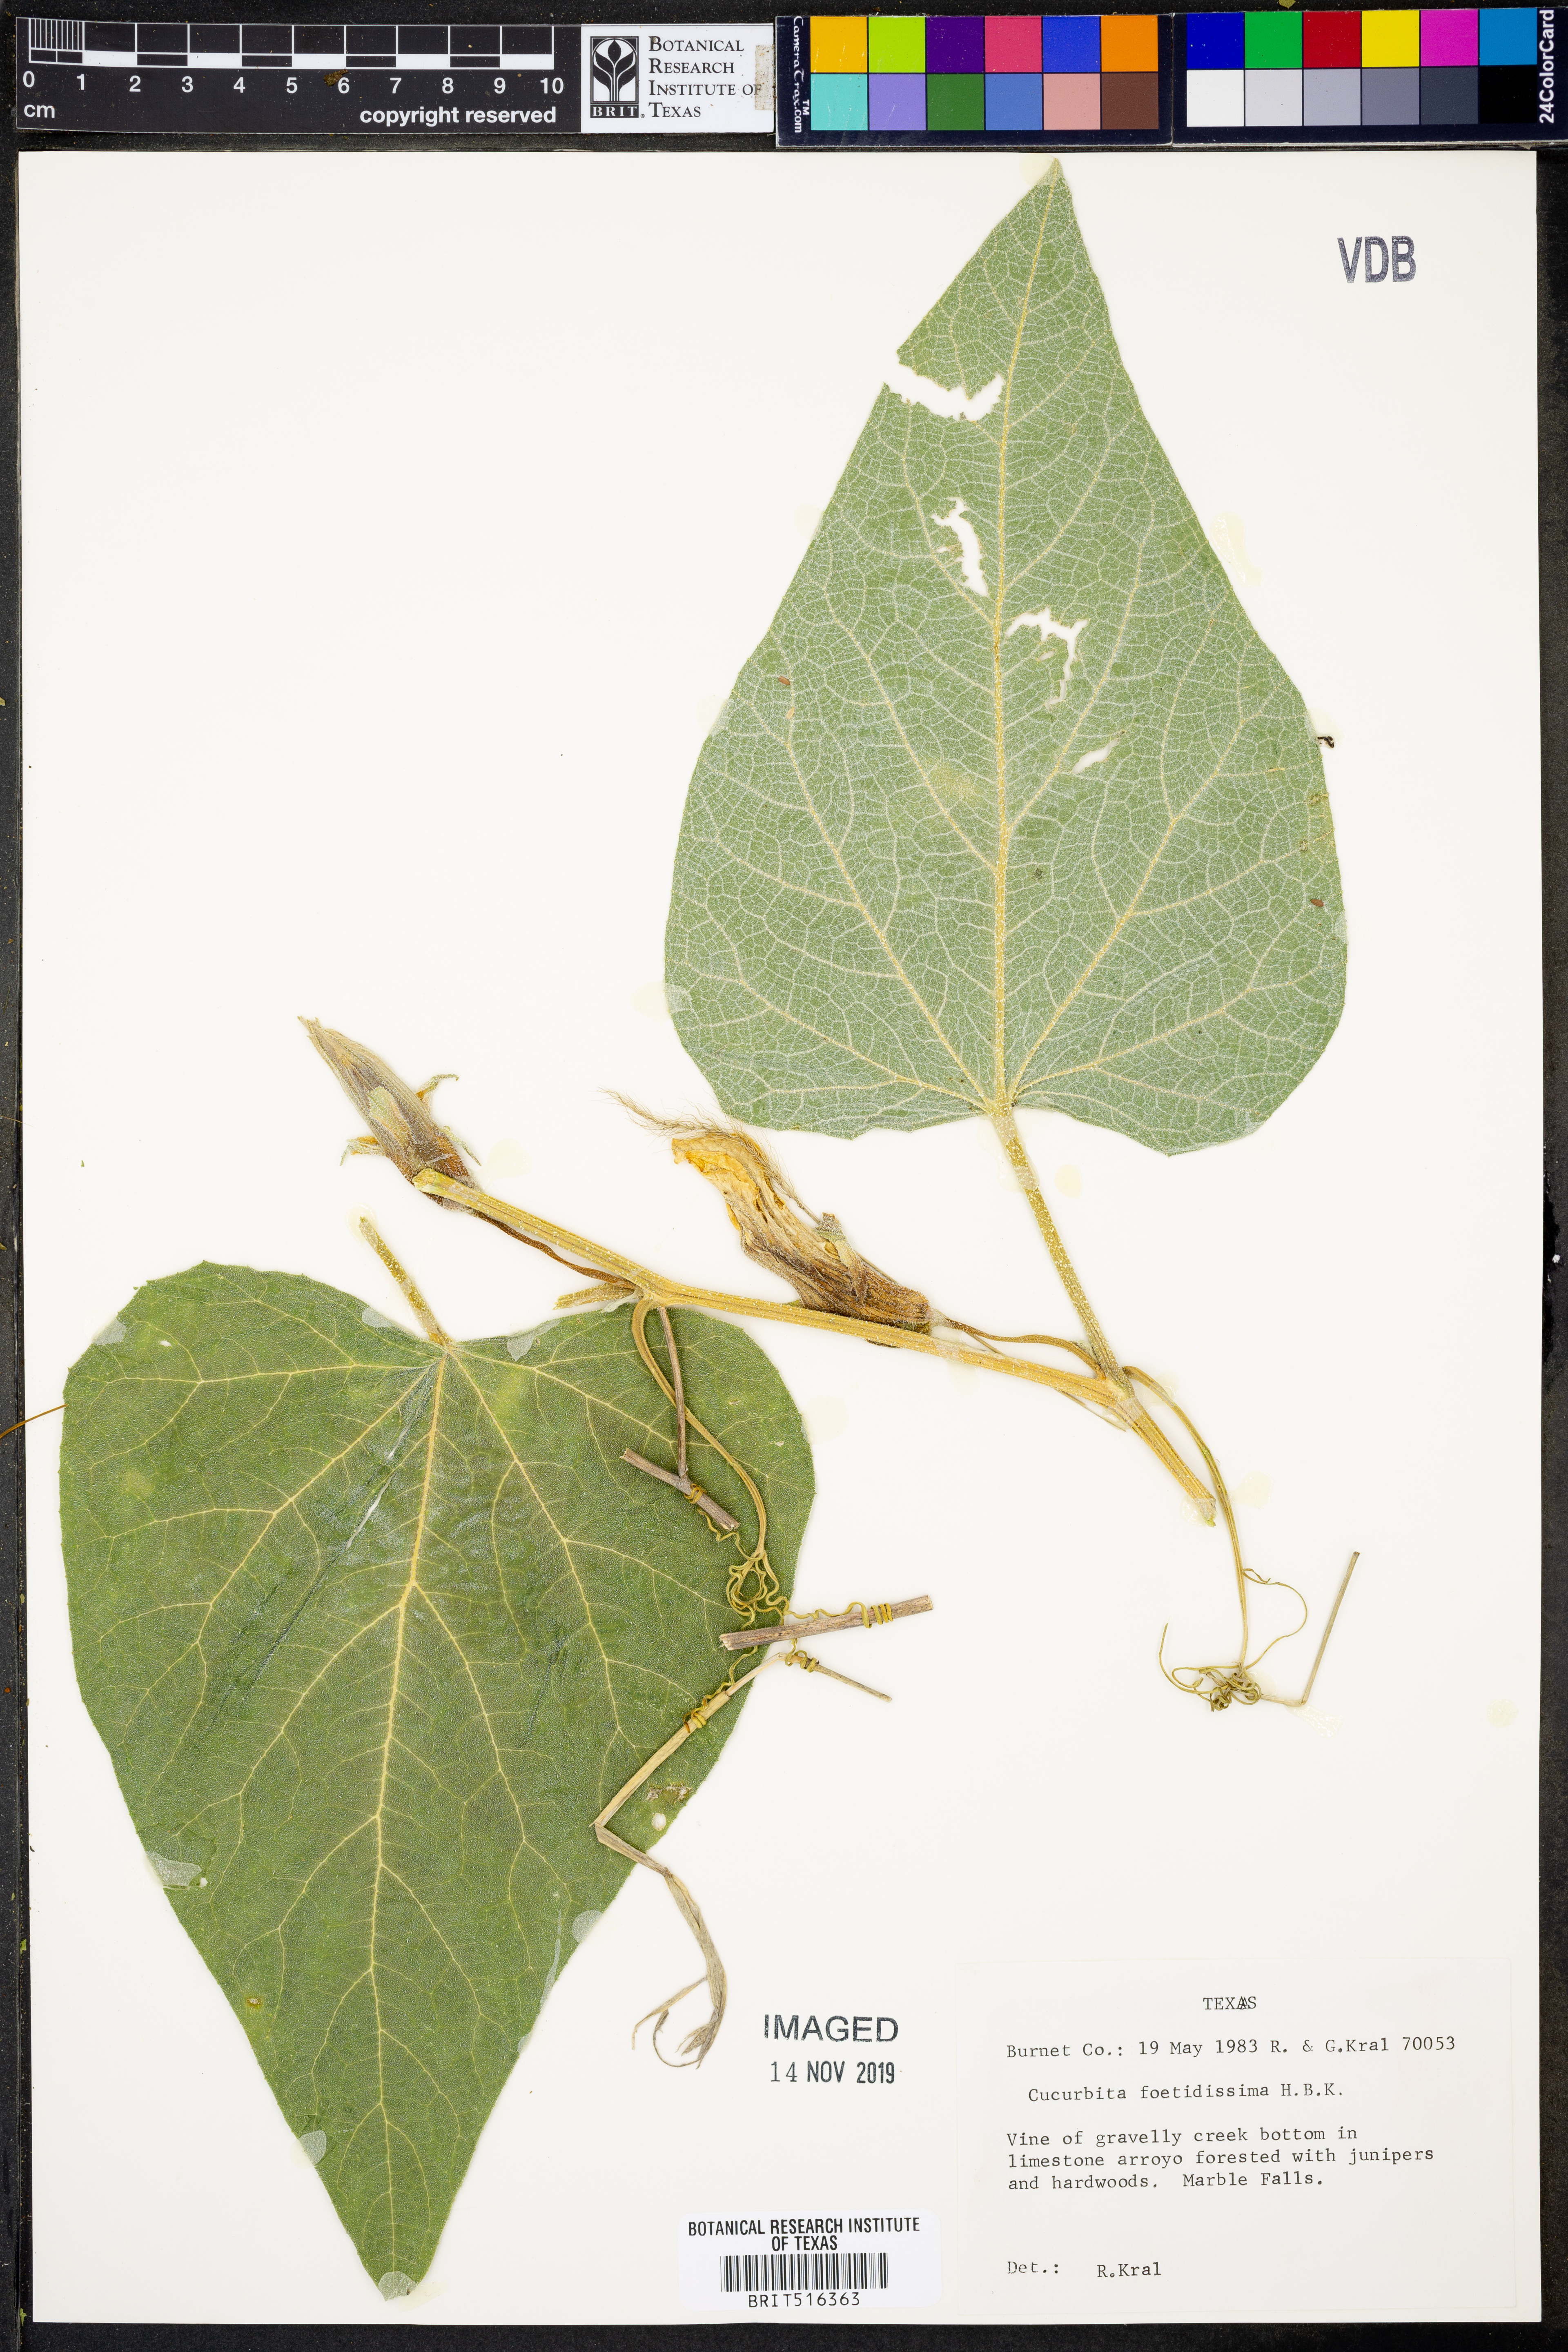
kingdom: Plantae
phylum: Tracheophyta
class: Magnoliopsida
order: Cucurbitales
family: Cucurbitaceae
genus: Cucurbita
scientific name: Cucurbita foetidissima
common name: Buffalo gourd
